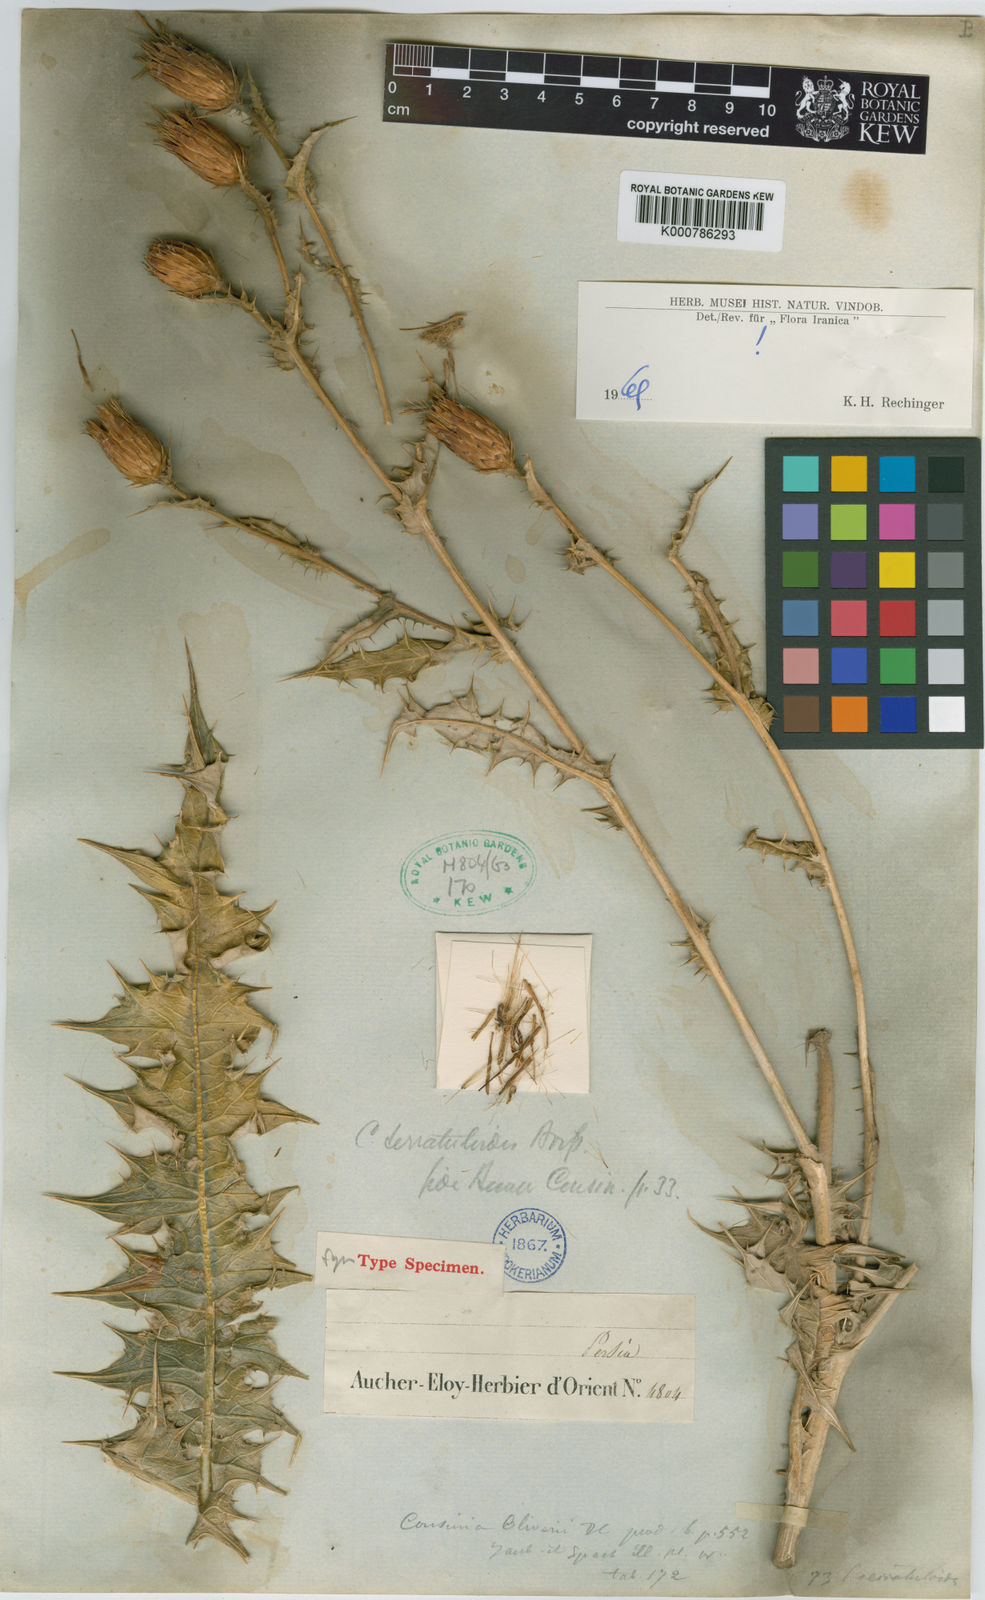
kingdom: Plantae
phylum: Tracheophyta
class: Magnoliopsida
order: Asterales
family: Asteraceae
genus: Cousinia
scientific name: Cousinia serratuloides
